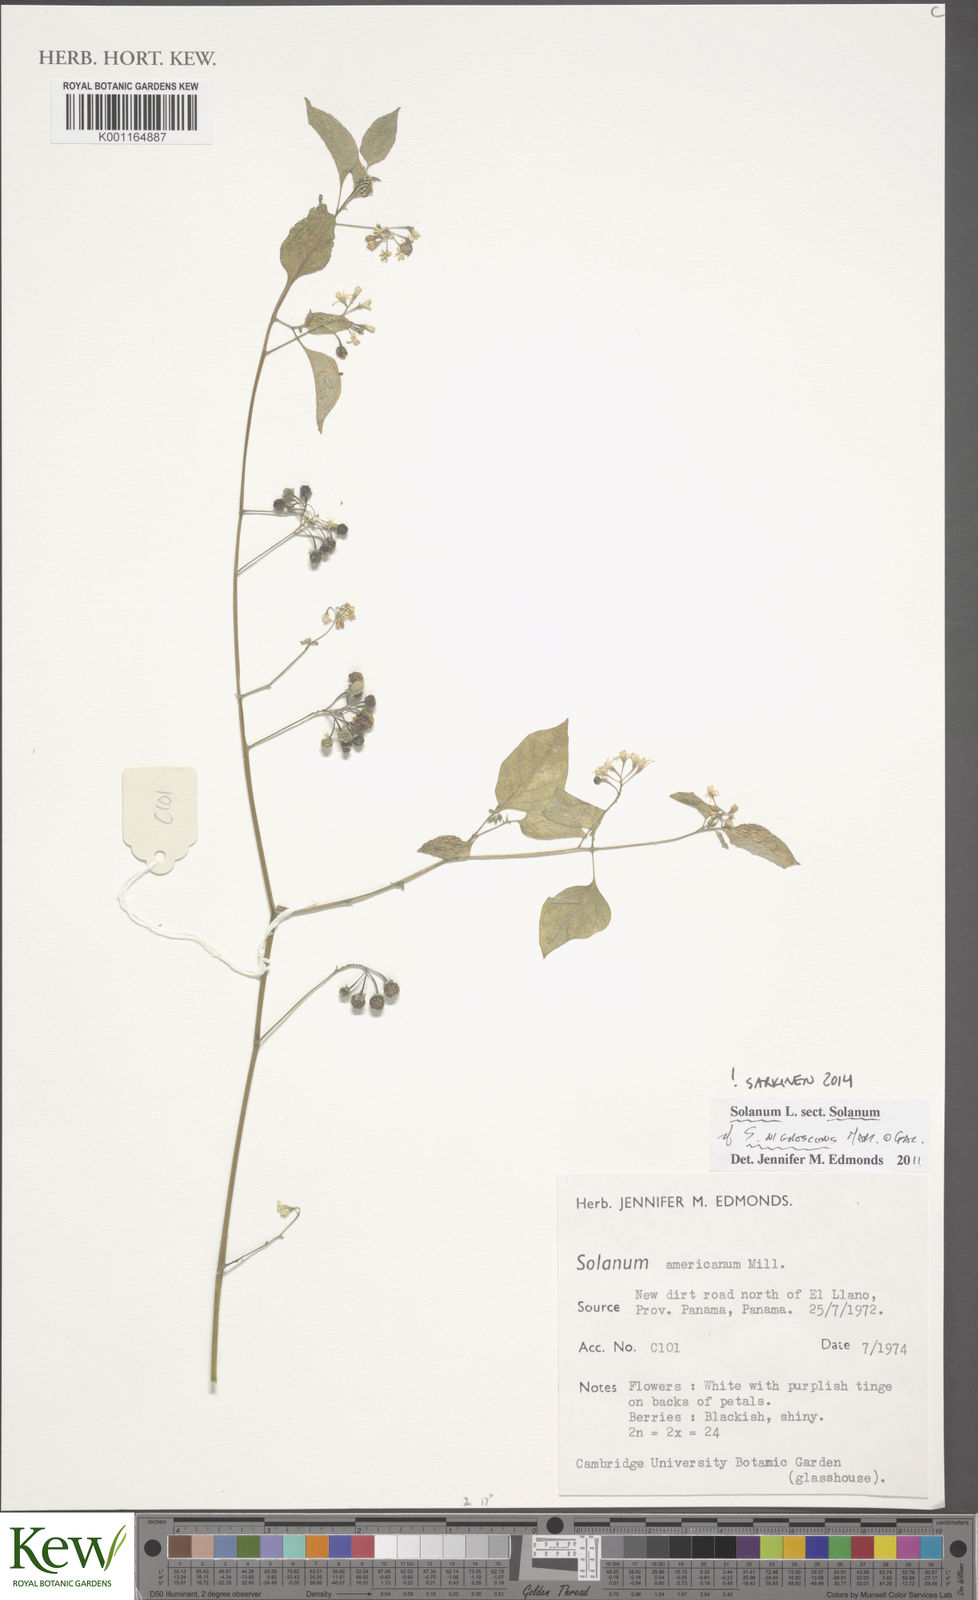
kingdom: Plantae
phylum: Tracheophyta
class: Magnoliopsida
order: Solanales
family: Solanaceae
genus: Solanum
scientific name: Solanum nigrescens
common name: Divine nightshade
